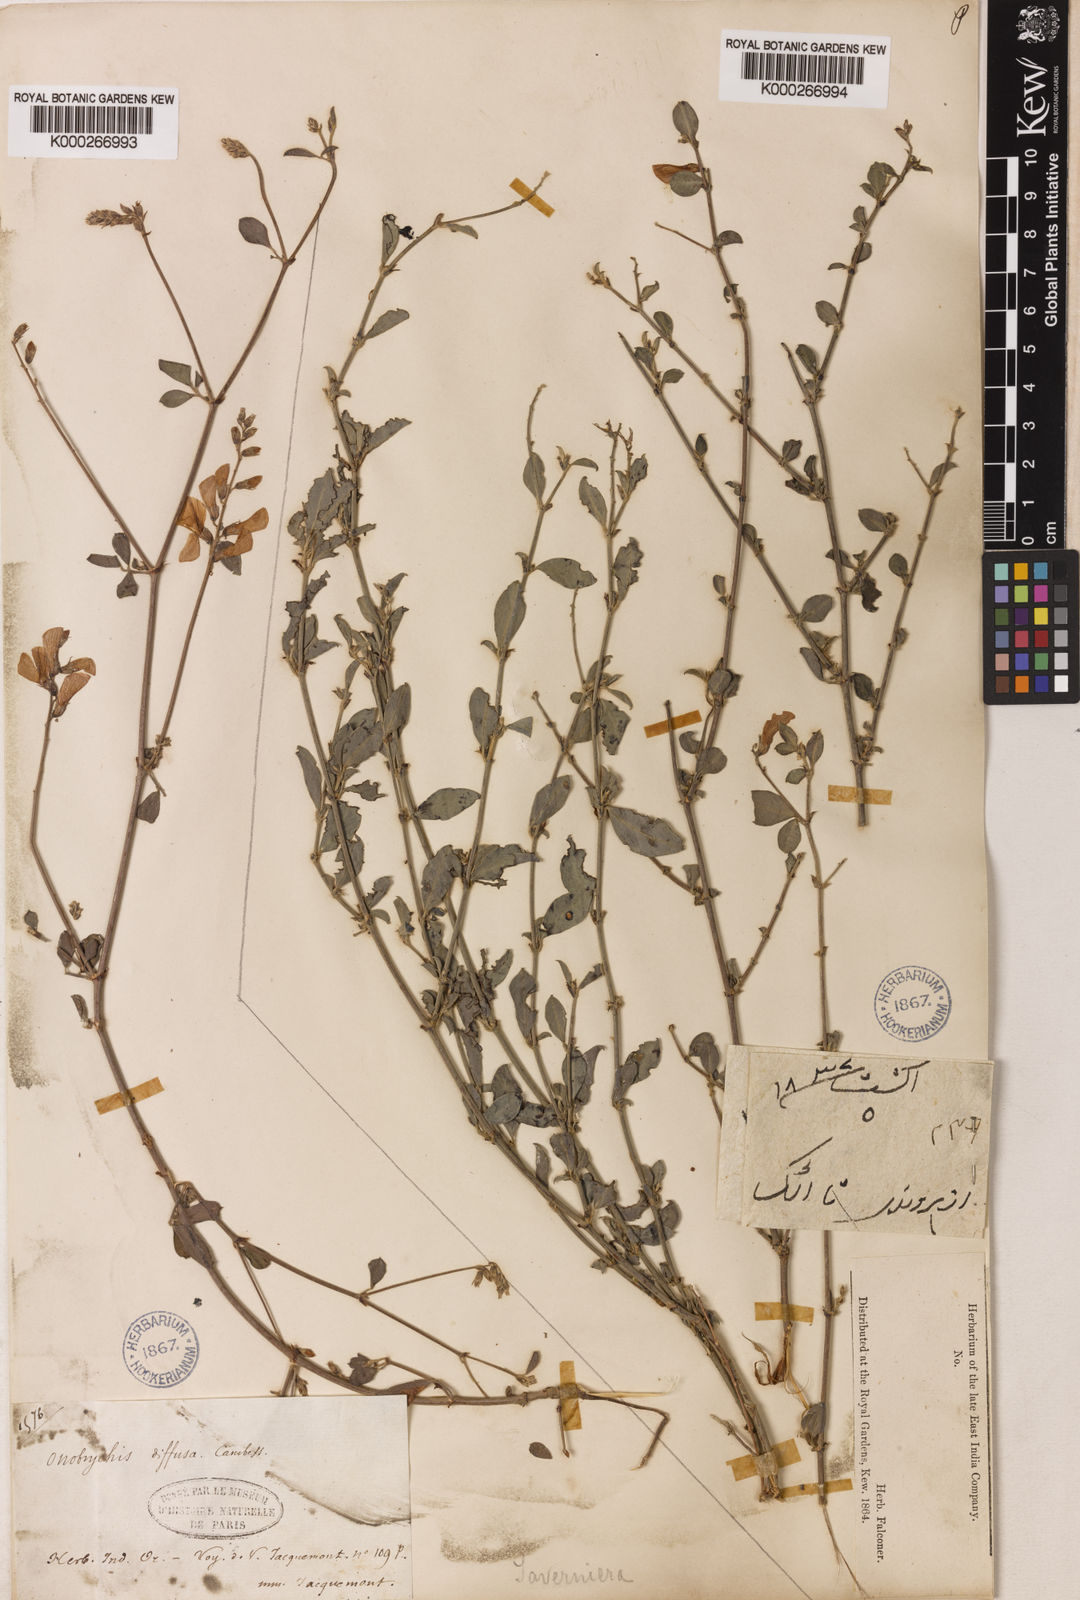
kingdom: Plantae
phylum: Tracheophyta
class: Magnoliopsida
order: Fabales
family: Fabaceae
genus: Taverniera
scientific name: Taverniera nummularia
